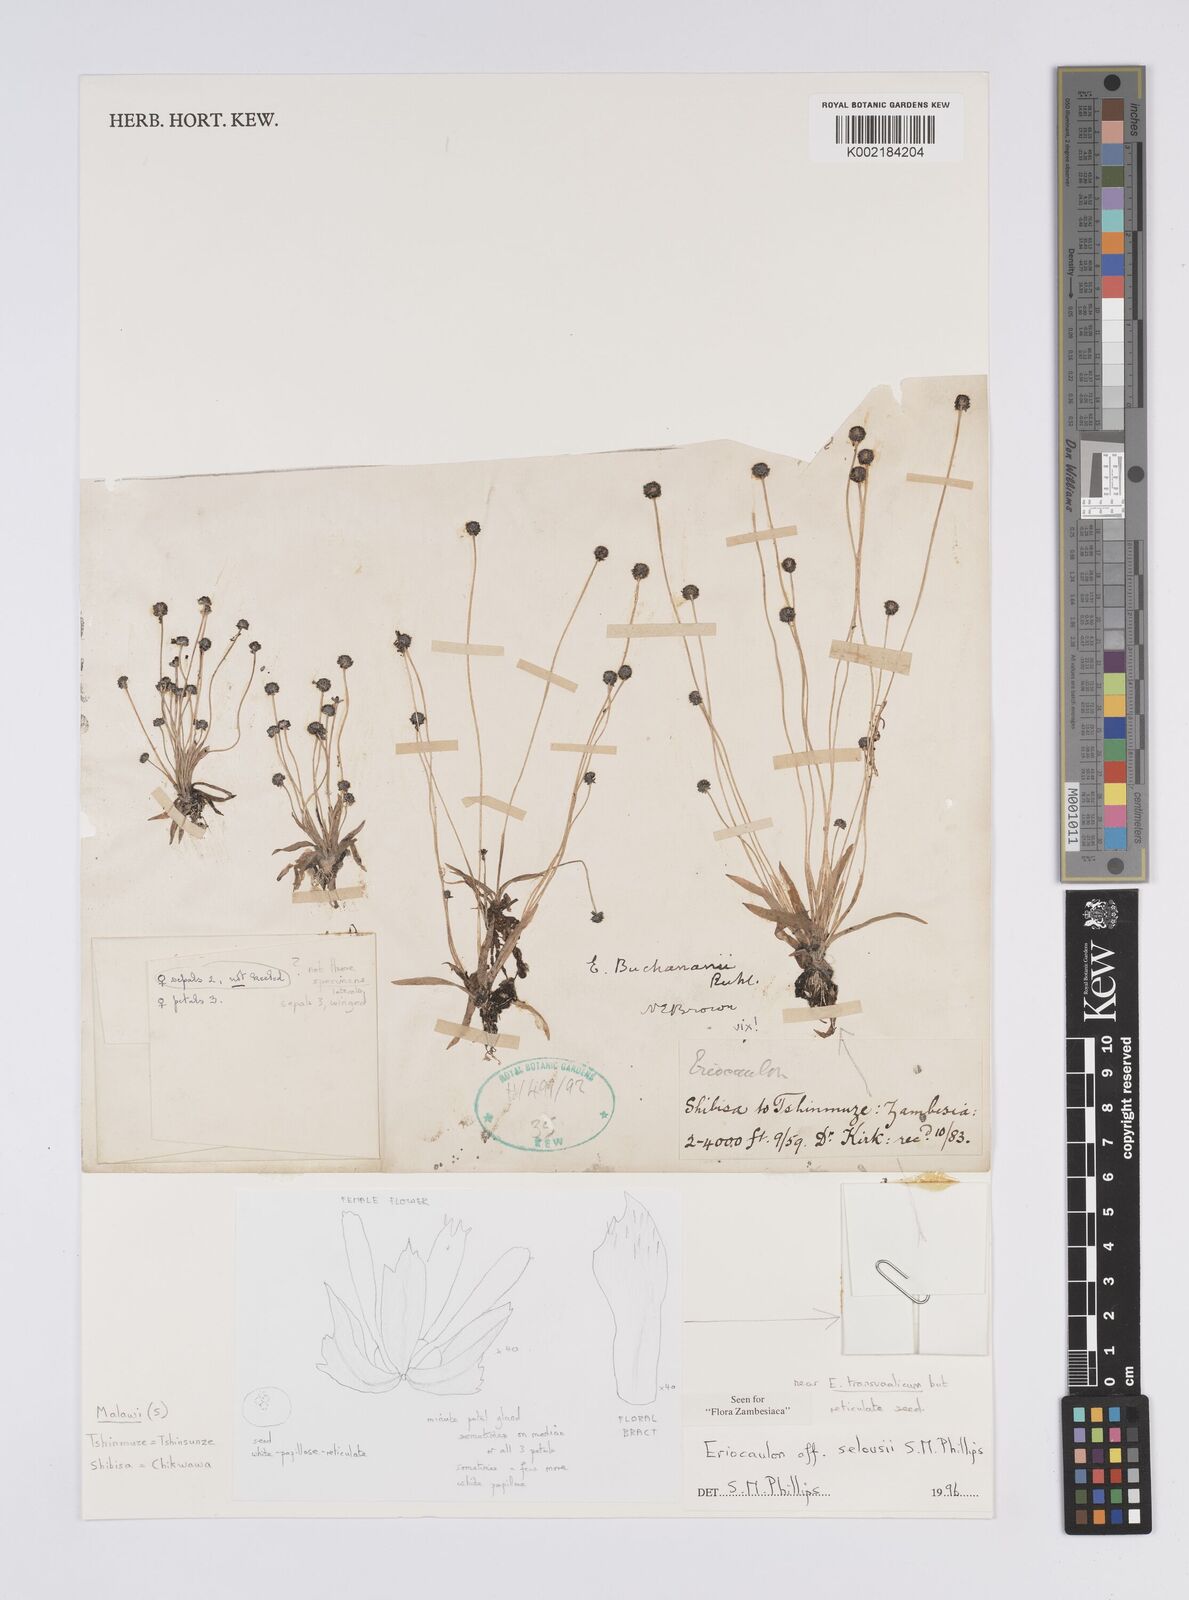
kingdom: Plantae
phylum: Tracheophyta
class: Liliopsida
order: Poales
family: Eriocaulaceae
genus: Eriocaulon
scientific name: Eriocaulon selousii
